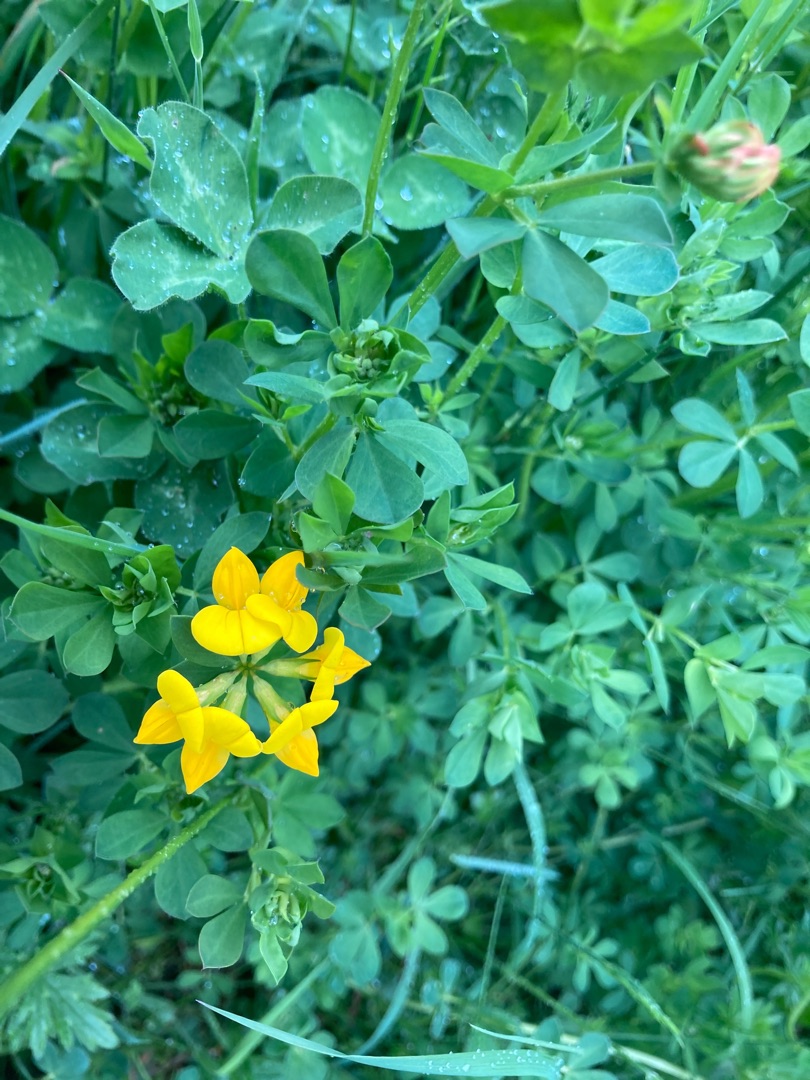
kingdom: Plantae
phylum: Tracheophyta
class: Magnoliopsida
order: Fabales
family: Fabaceae
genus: Lotus
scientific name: Lotus pedunculatus
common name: Sump-kællingetand
